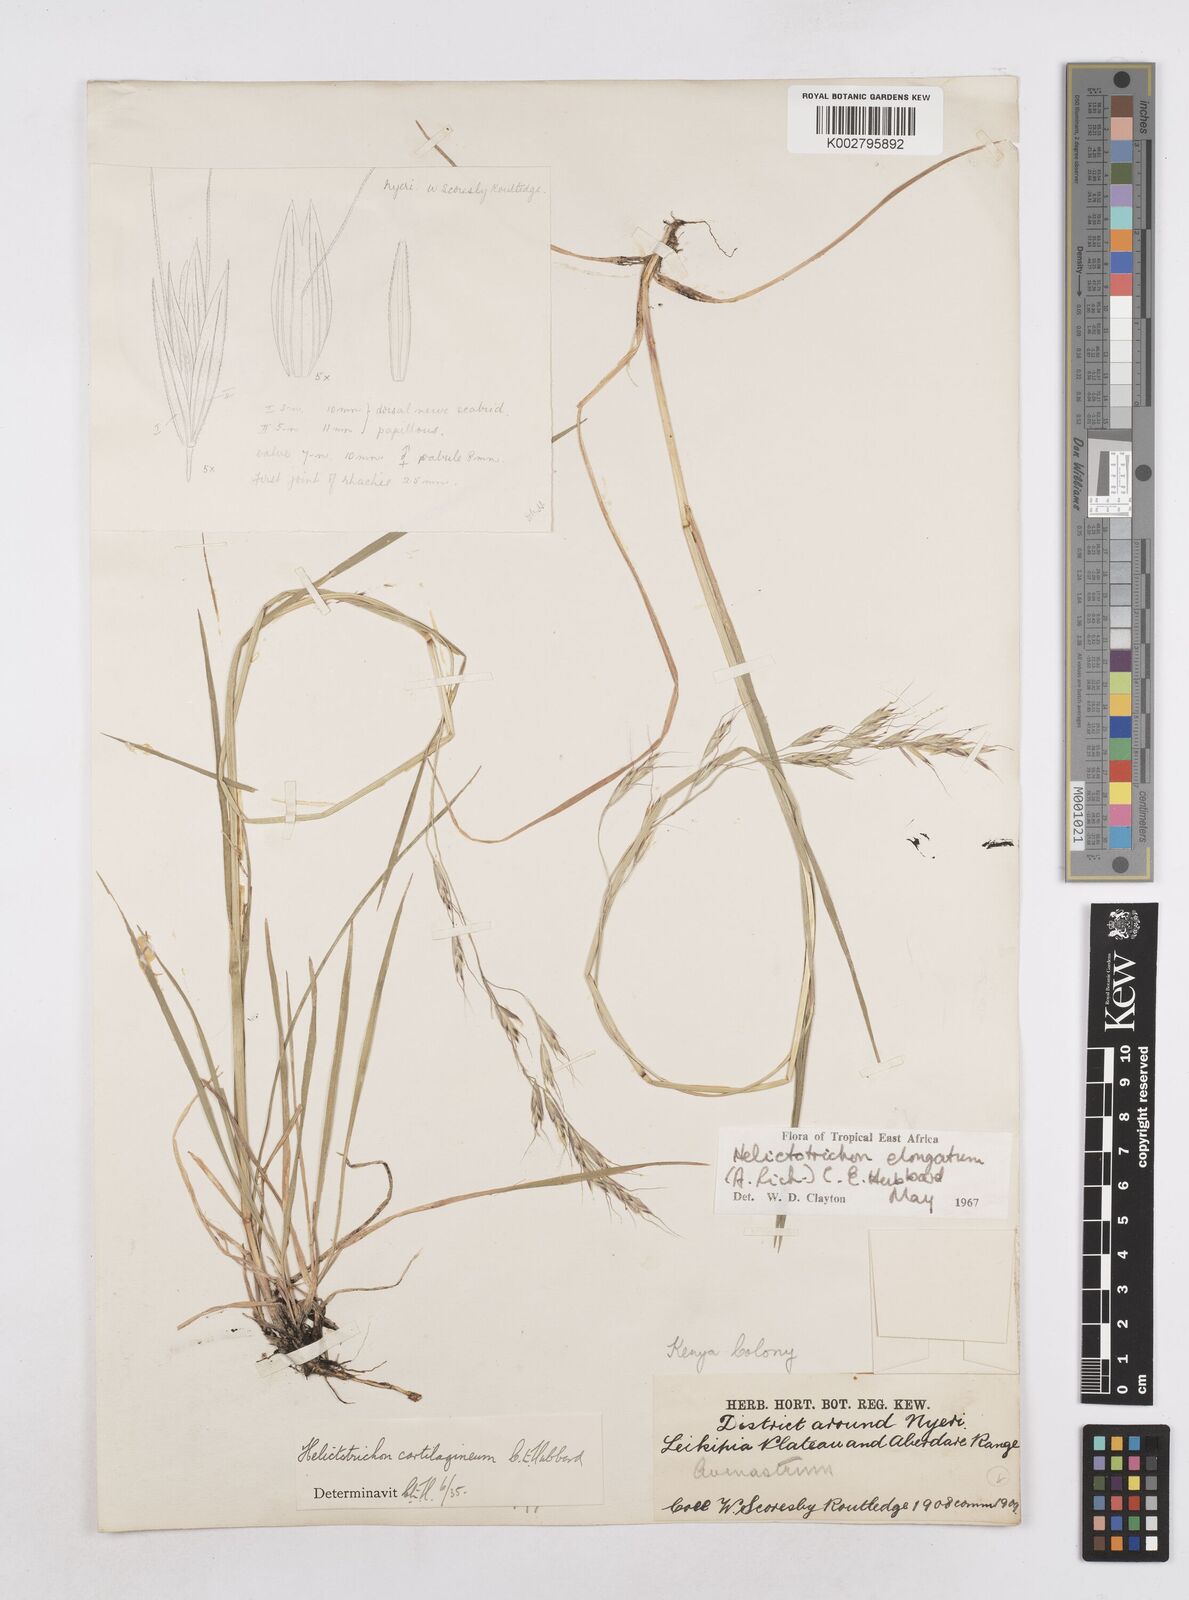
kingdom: Plantae
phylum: Tracheophyta
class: Liliopsida
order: Poales
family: Poaceae
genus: Trisetopsis
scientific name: Trisetopsis elongata
